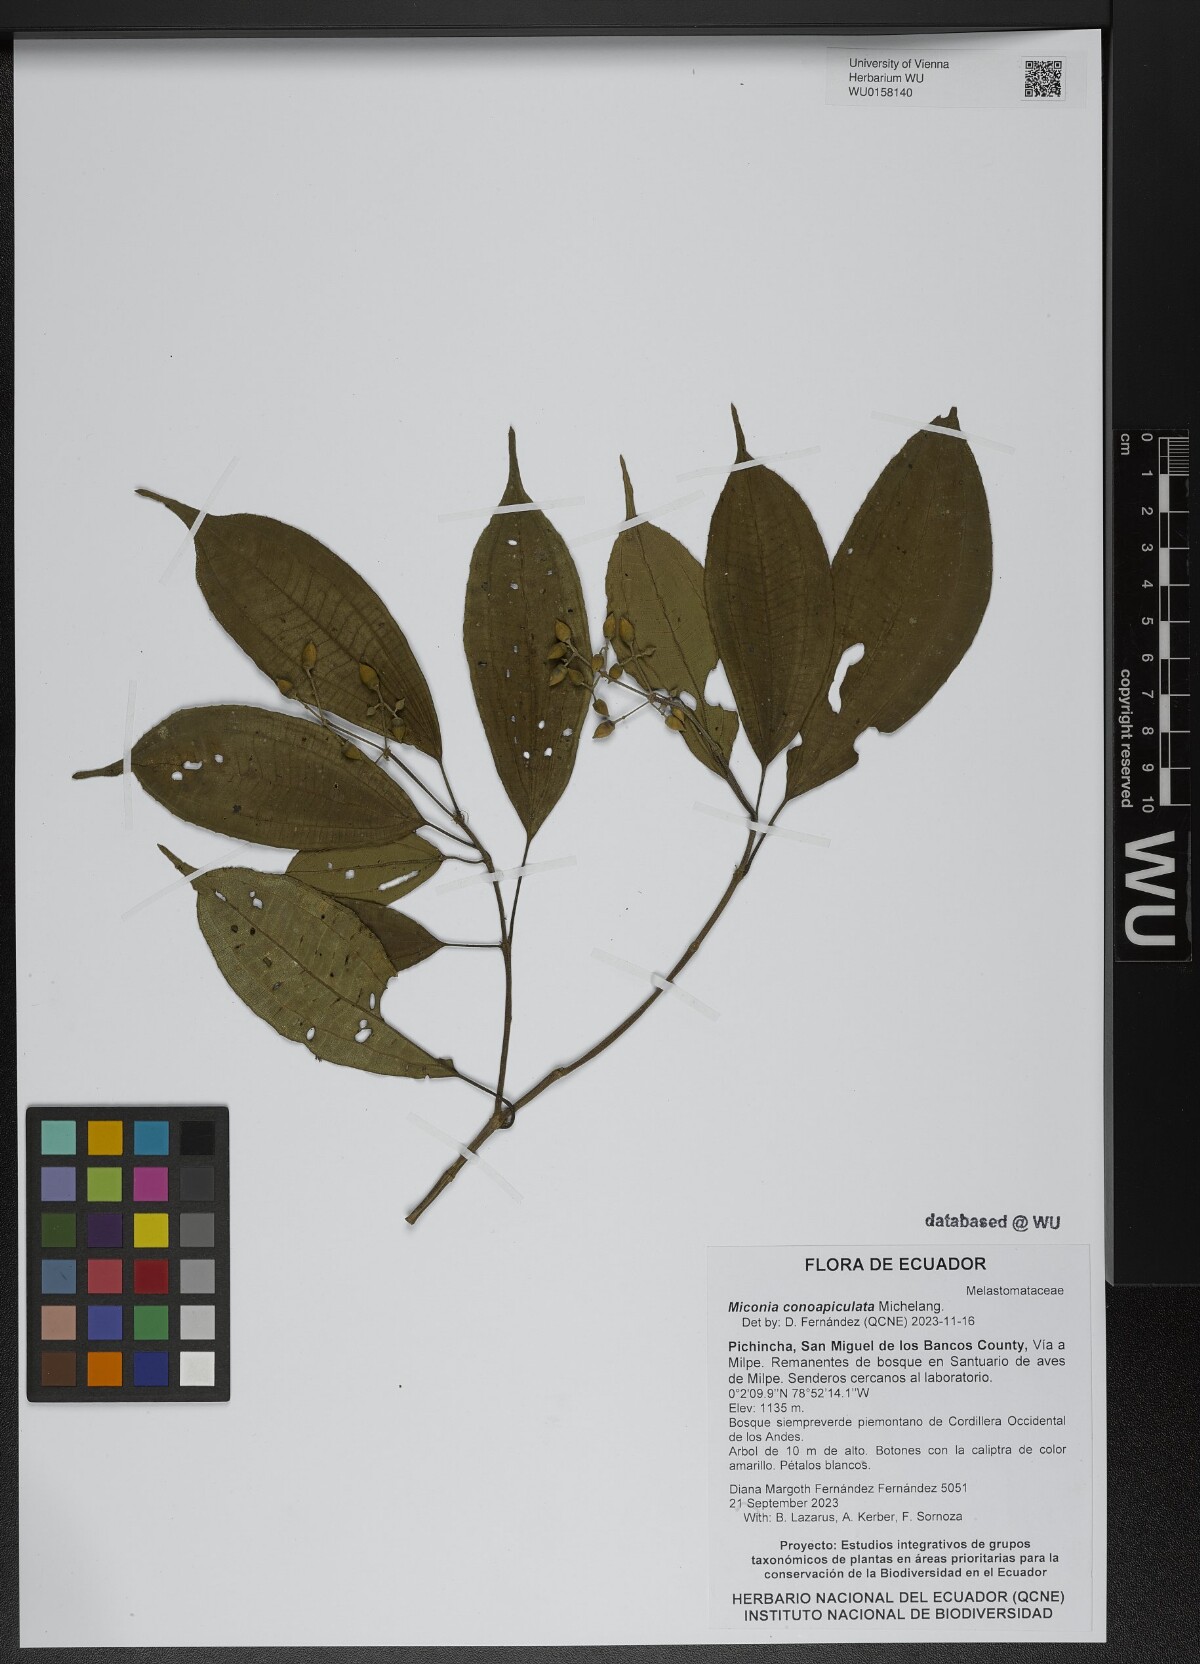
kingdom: Plantae
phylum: Tracheophyta
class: Magnoliopsida
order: Myrtales
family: Melastomataceae
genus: Miconia
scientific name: Miconia conoapiculata
